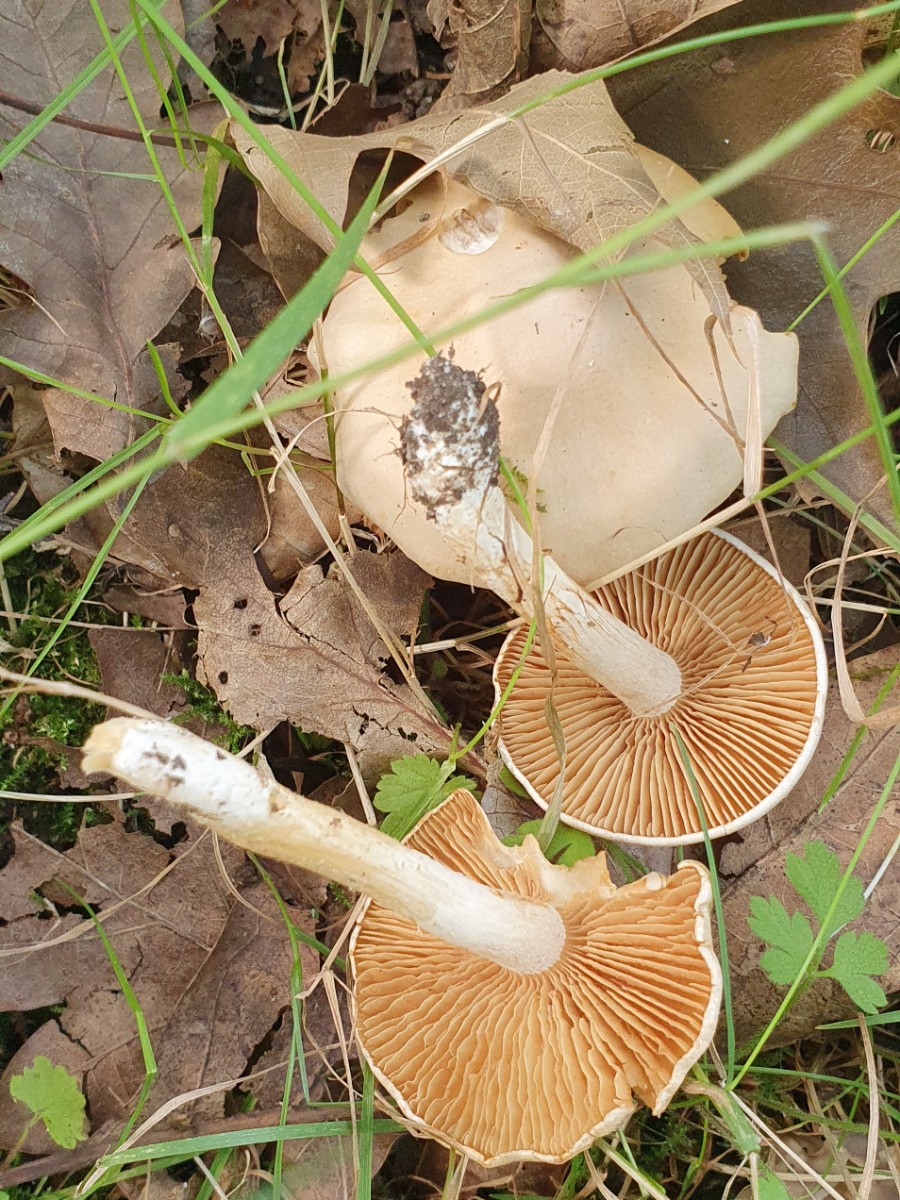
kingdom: Fungi
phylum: Basidiomycota
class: Agaricomycetes
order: Agaricales
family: Cortinariaceae
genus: Thaxterogaster
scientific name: Thaxterogaster leucoluteolus
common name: isabella slørhat
